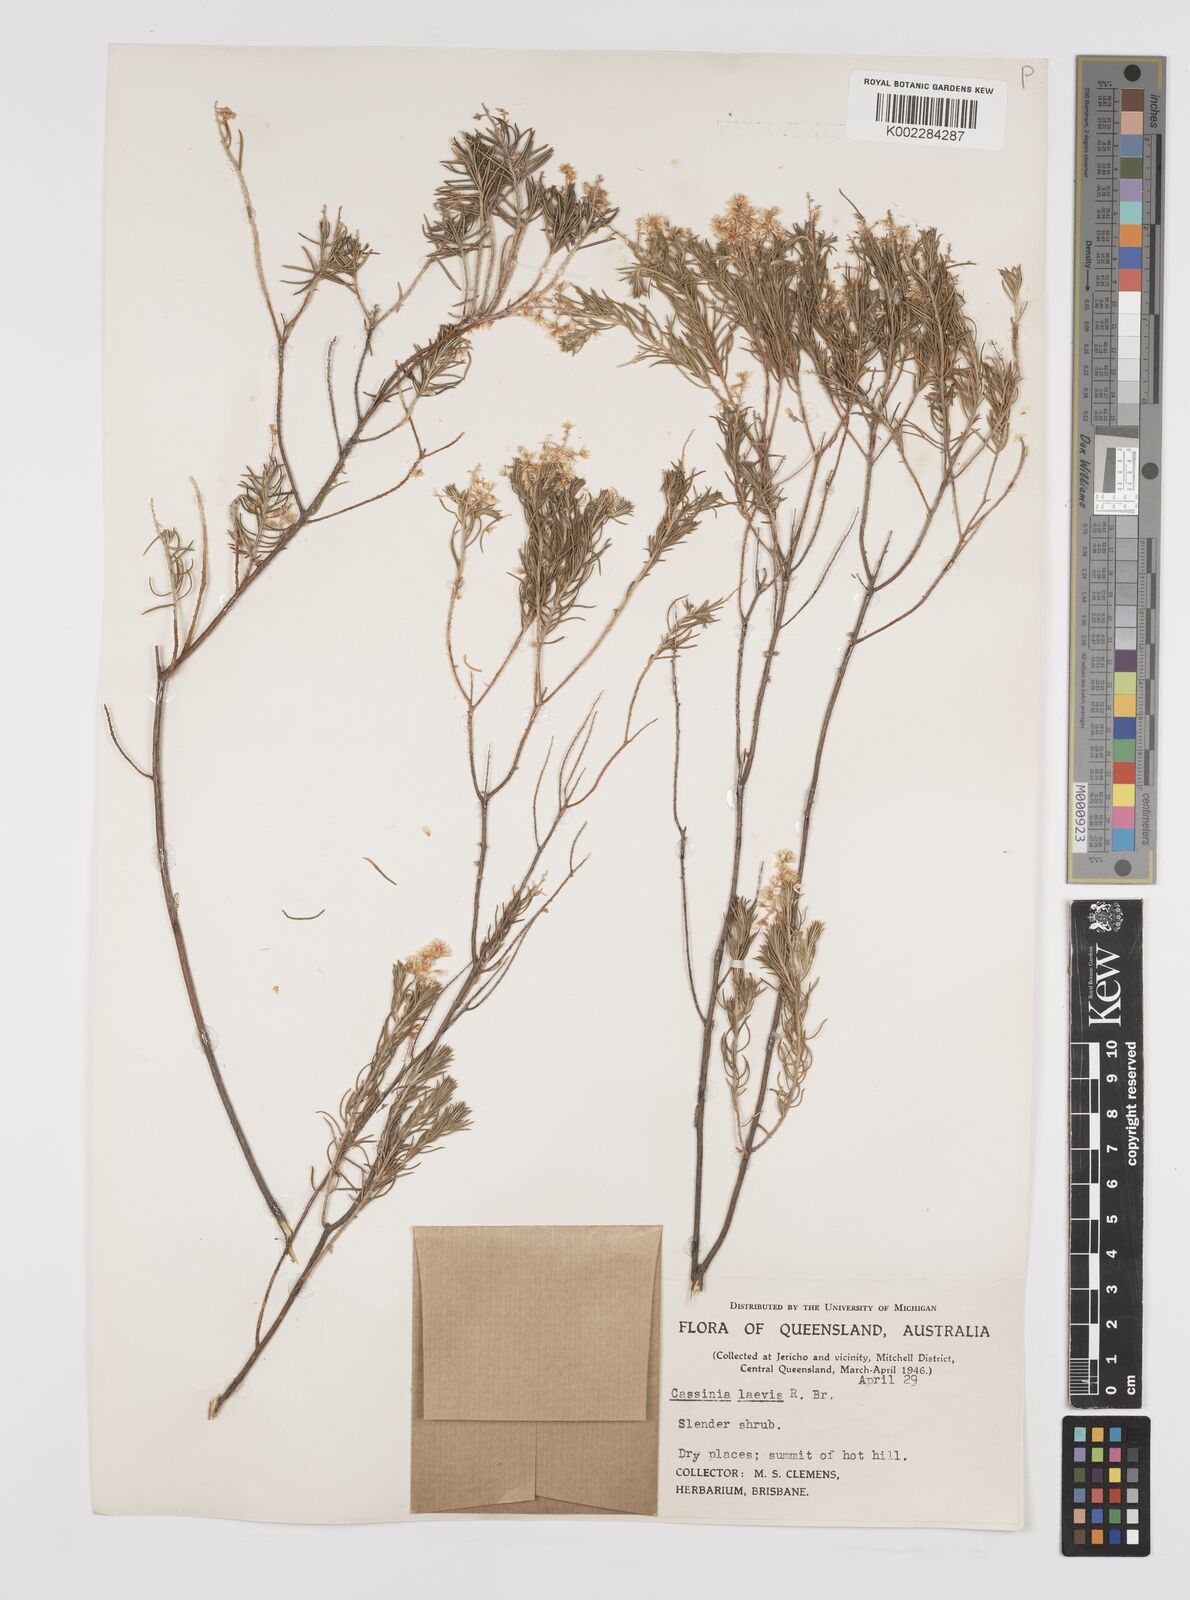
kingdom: Plantae
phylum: Tracheophyta
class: Magnoliopsida
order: Asterales
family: Asteraceae
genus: Cassinia
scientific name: Cassinia laevis
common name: Coughbush
